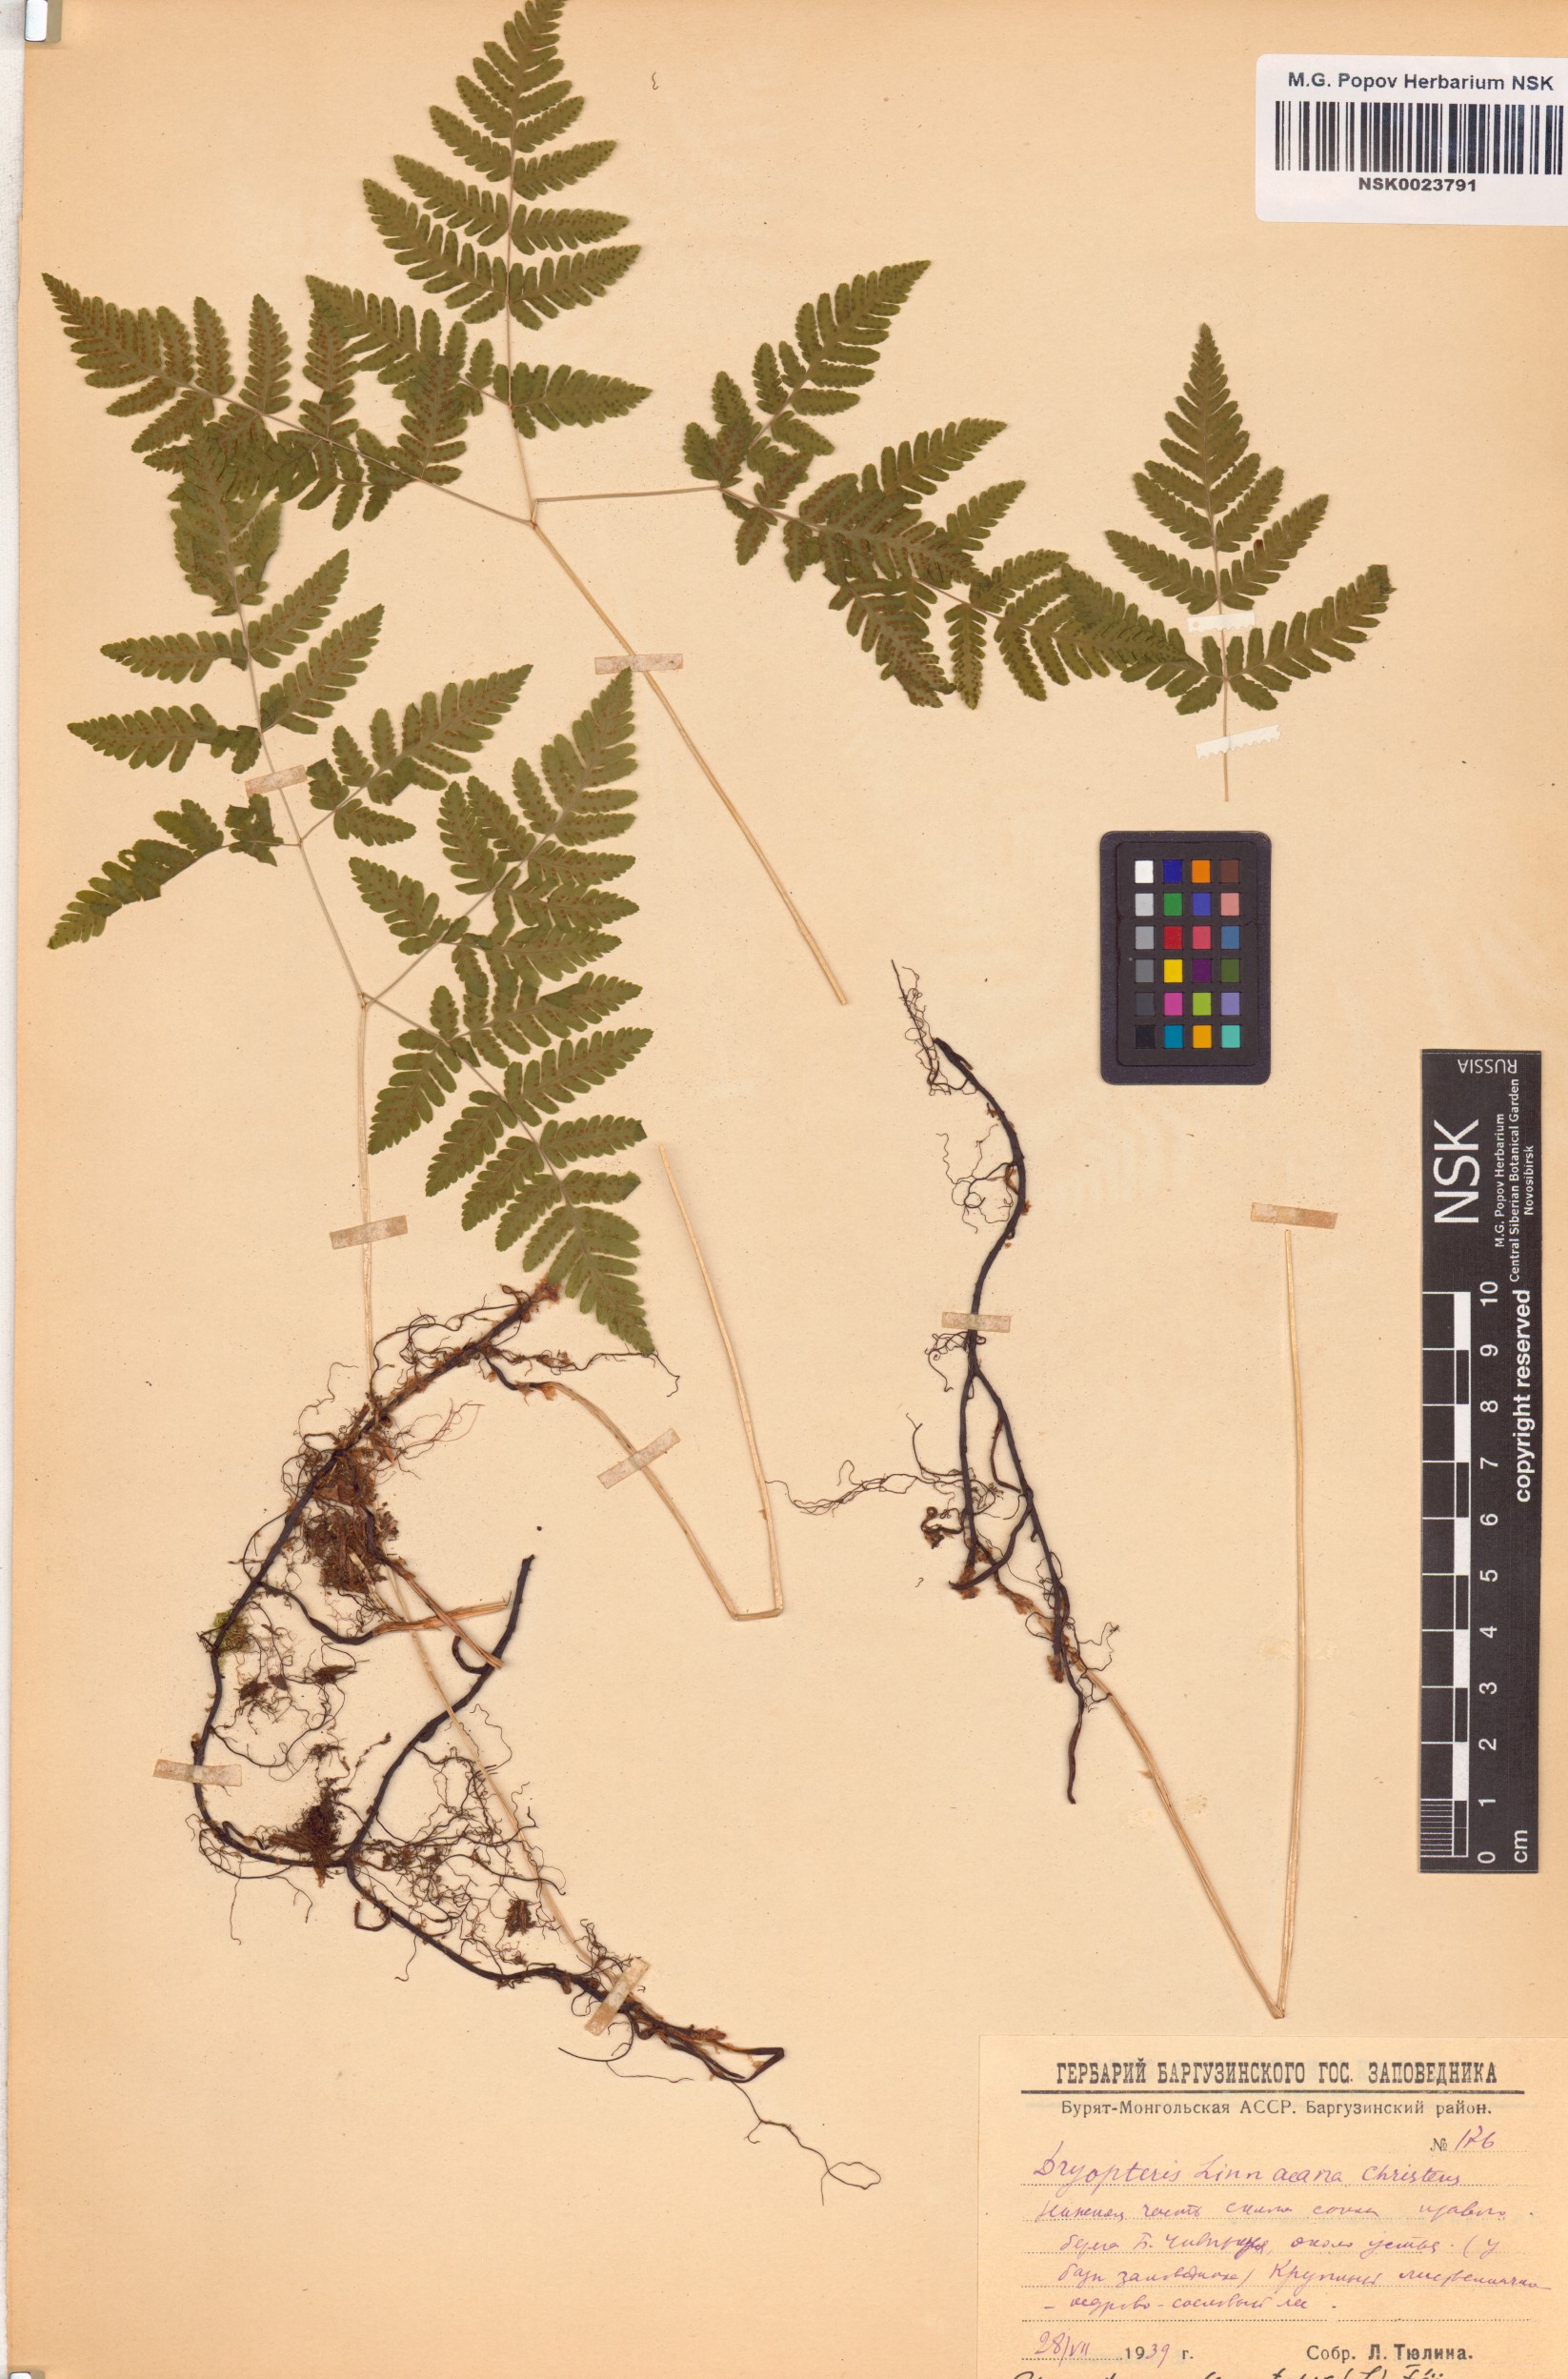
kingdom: Plantae
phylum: Tracheophyta
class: Polypodiopsida
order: Polypodiales
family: Cystopteridaceae
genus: Gymnocarpium
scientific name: Gymnocarpium dryopteris
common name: Oak fern
